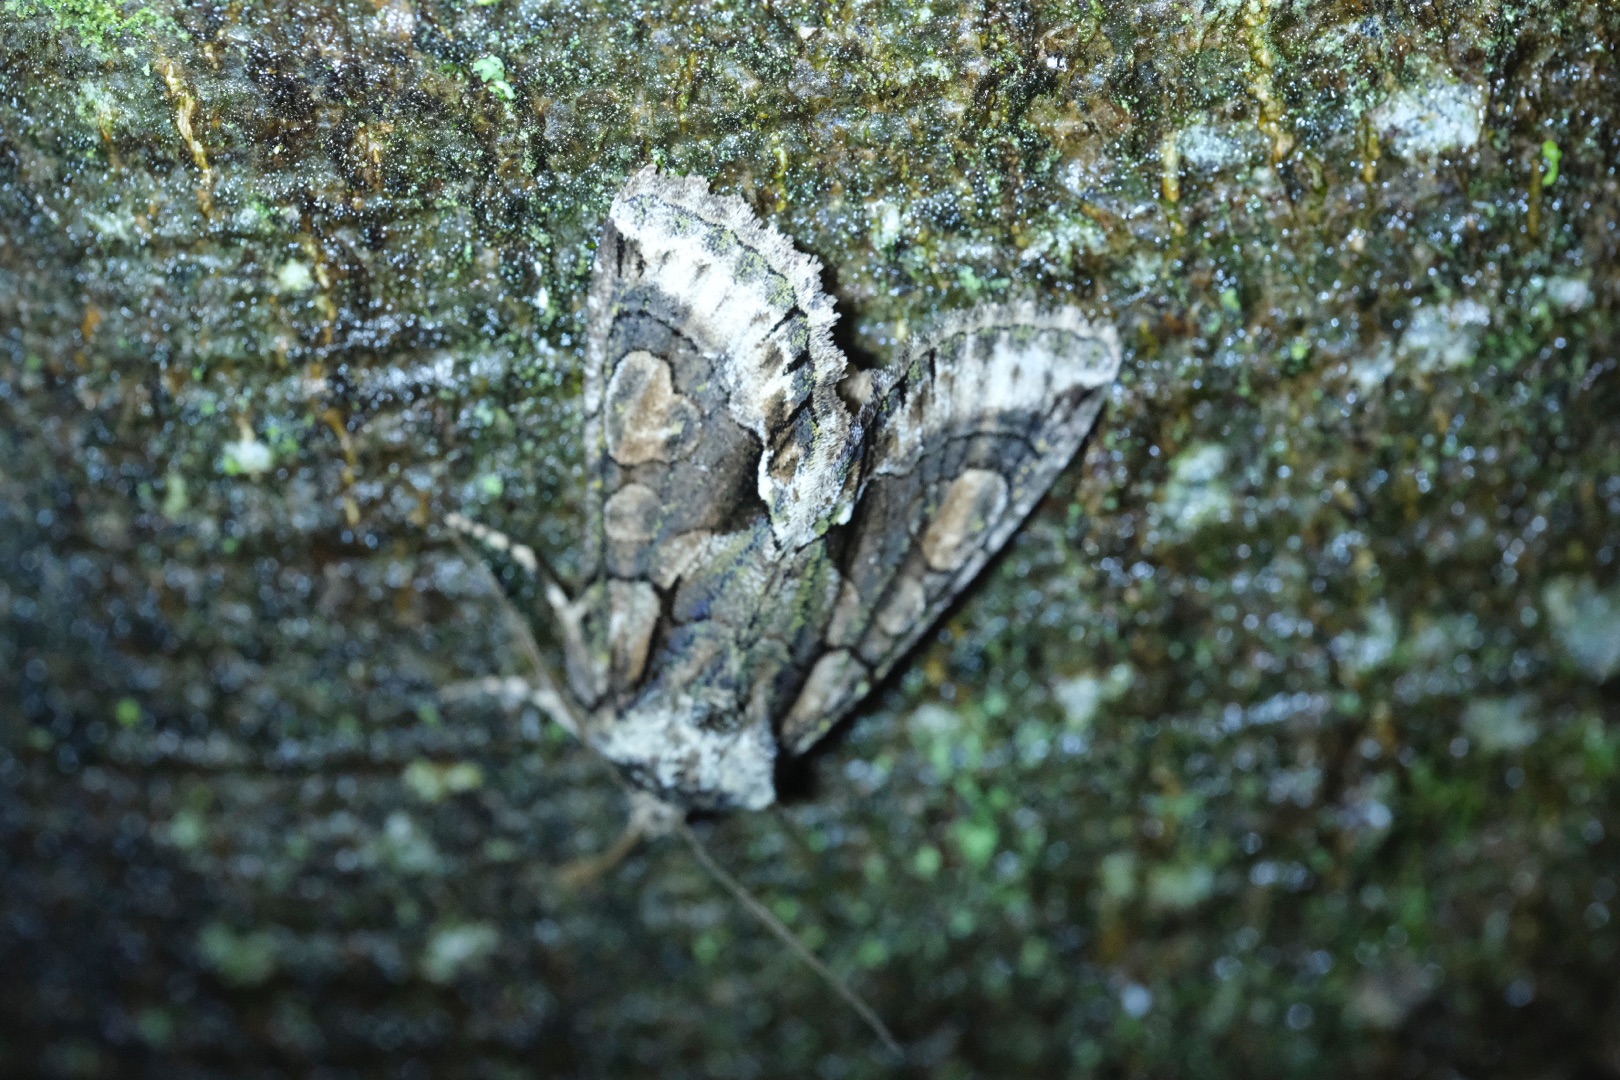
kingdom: Animalia
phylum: Arthropoda
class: Insecta
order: Lepidoptera
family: Noctuidae
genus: Allophyes
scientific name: Allophyes oxyacanthae
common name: Tjørneugle
